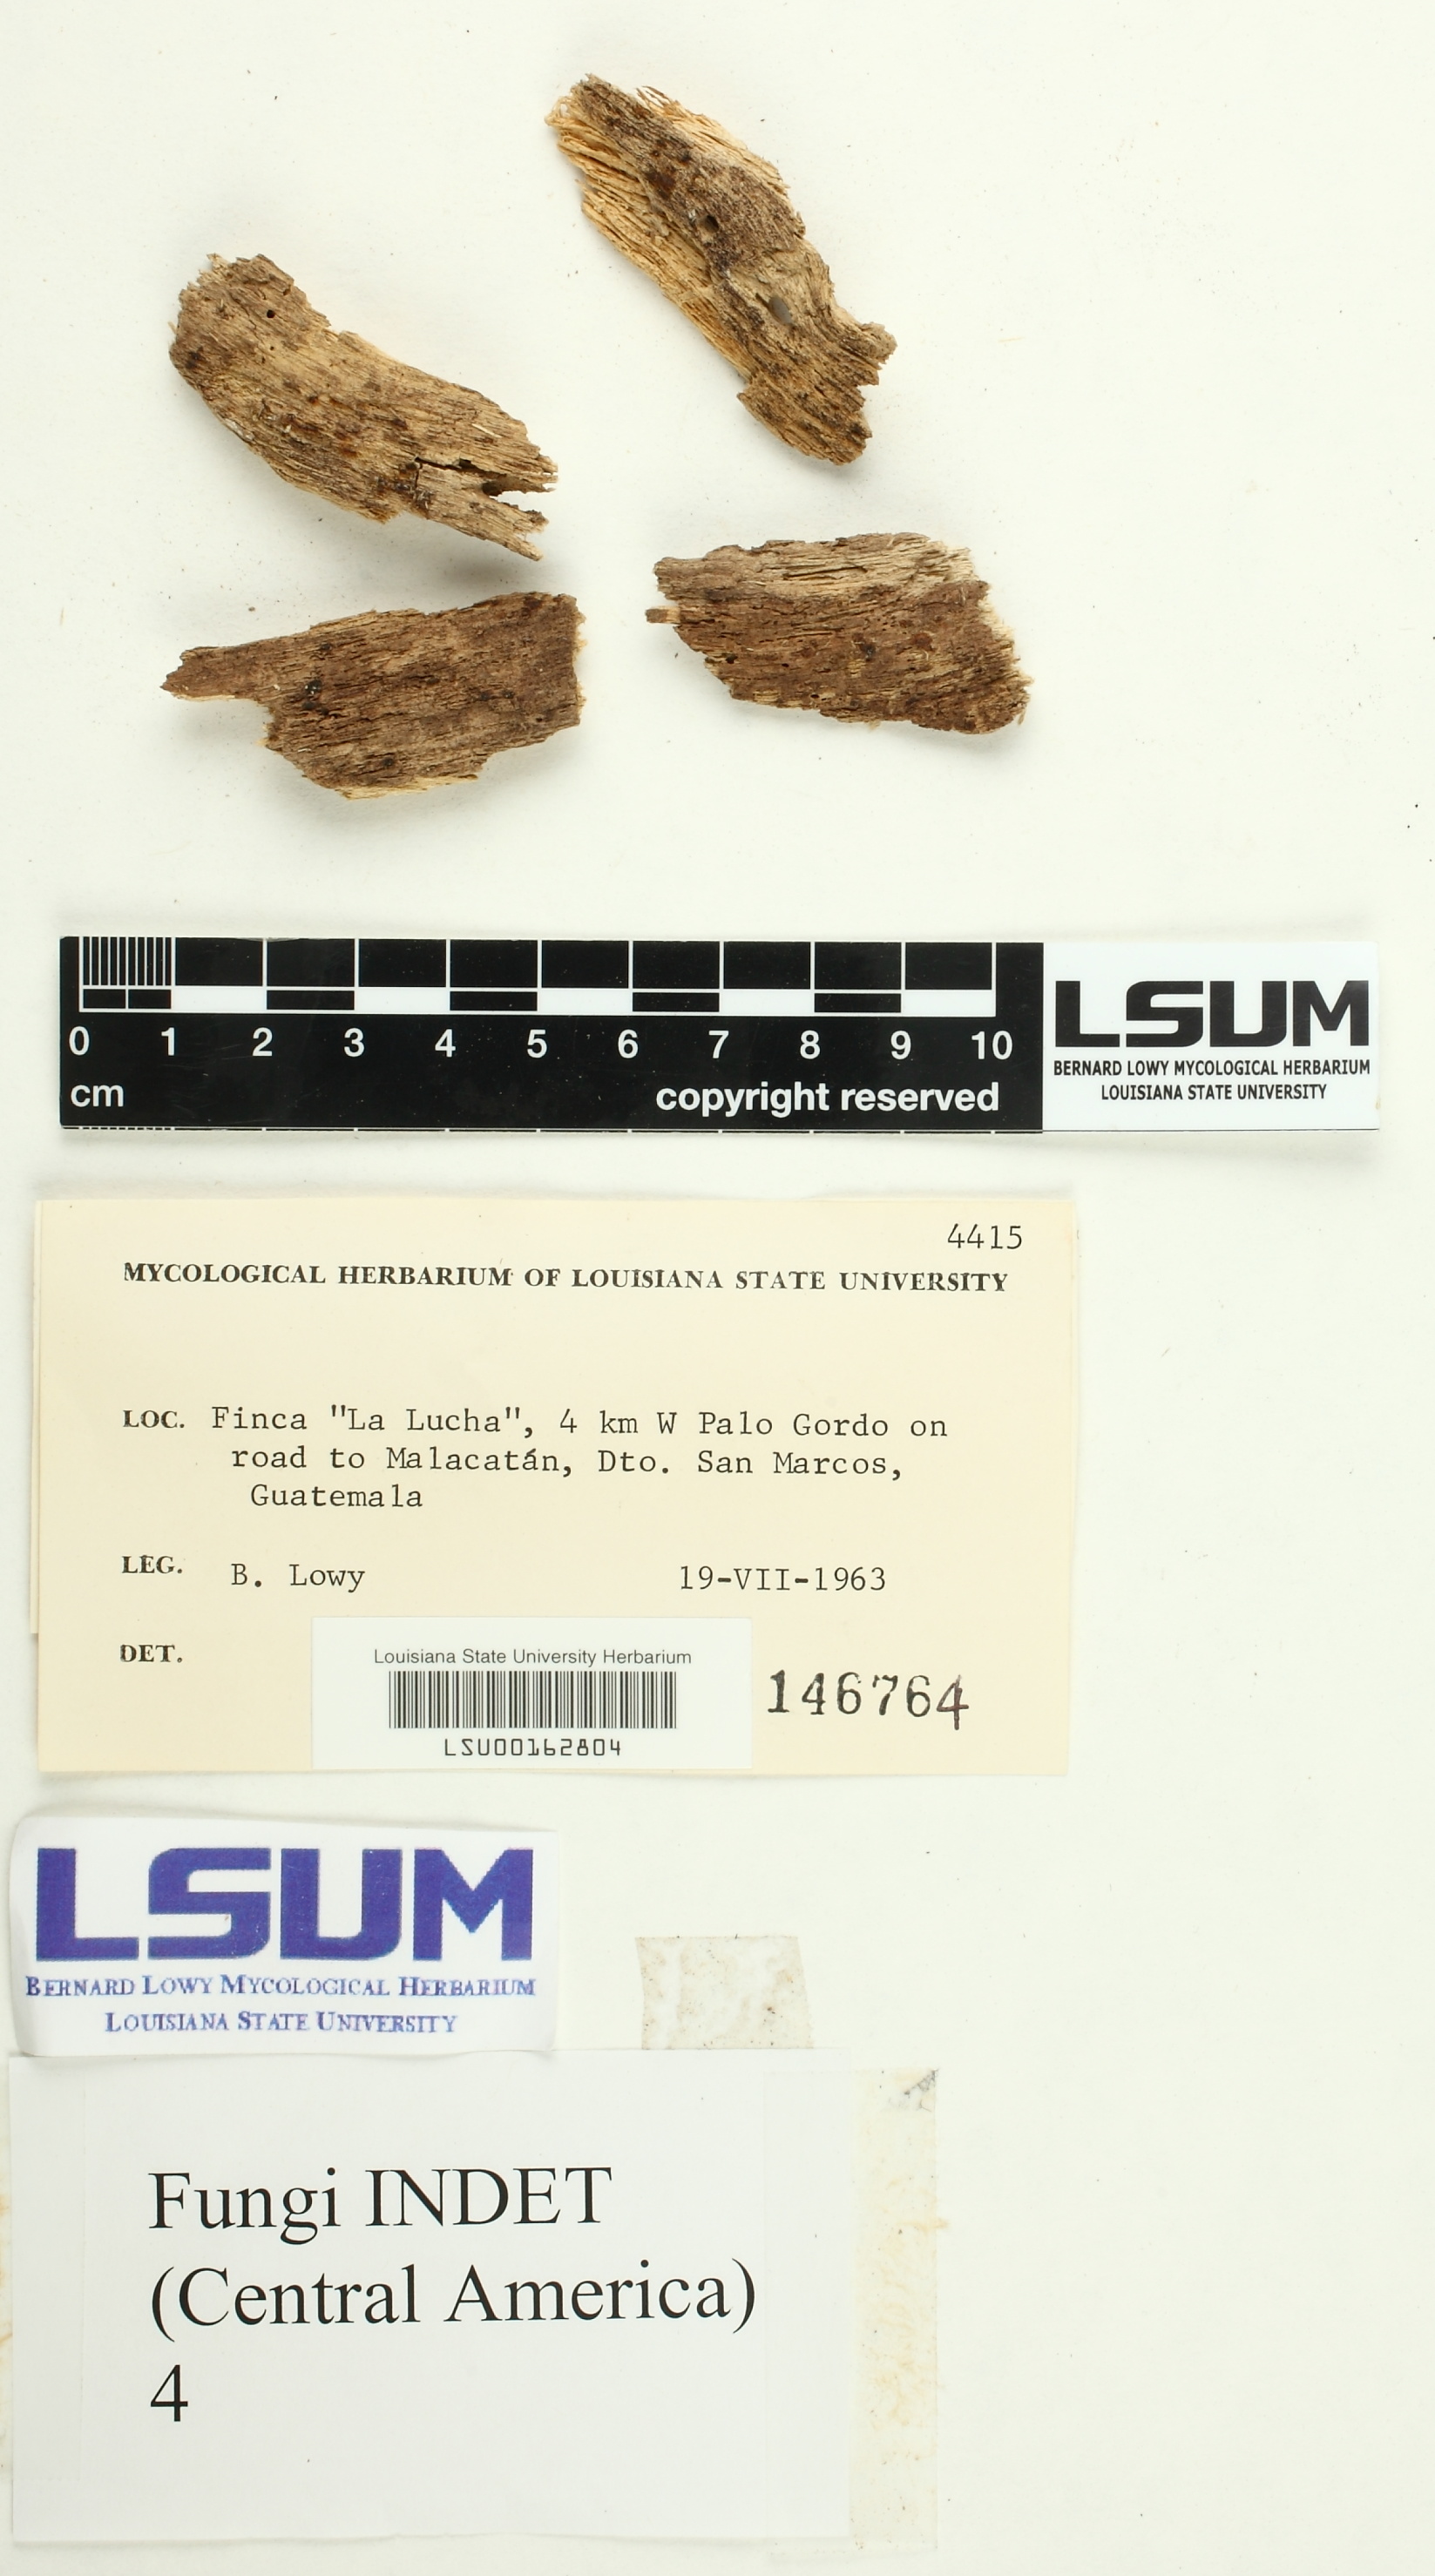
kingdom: Fungi
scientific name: Fungi
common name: Fungi
